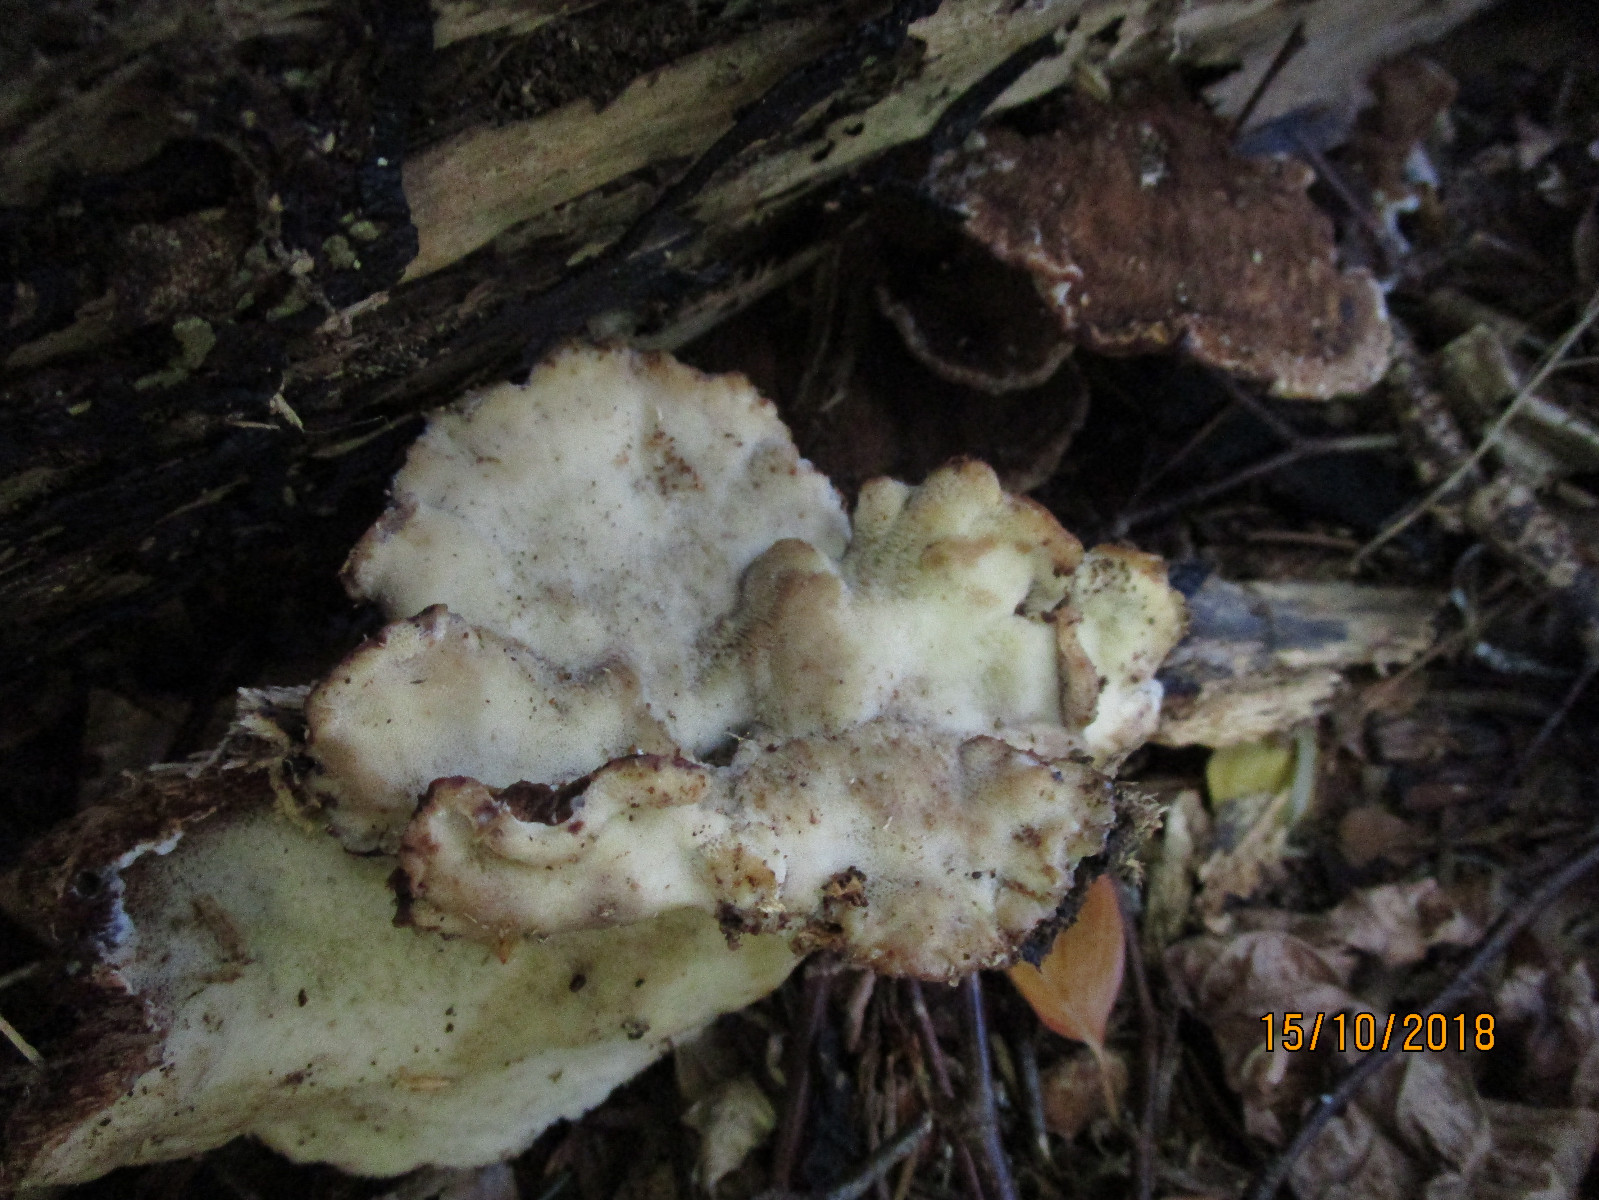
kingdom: Fungi
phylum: Basidiomycota
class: Agaricomycetes
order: Polyporales
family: Ischnodermataceae
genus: Ischnoderma
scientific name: Ischnoderma benzoinum
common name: gran-tjæreporesvamp
